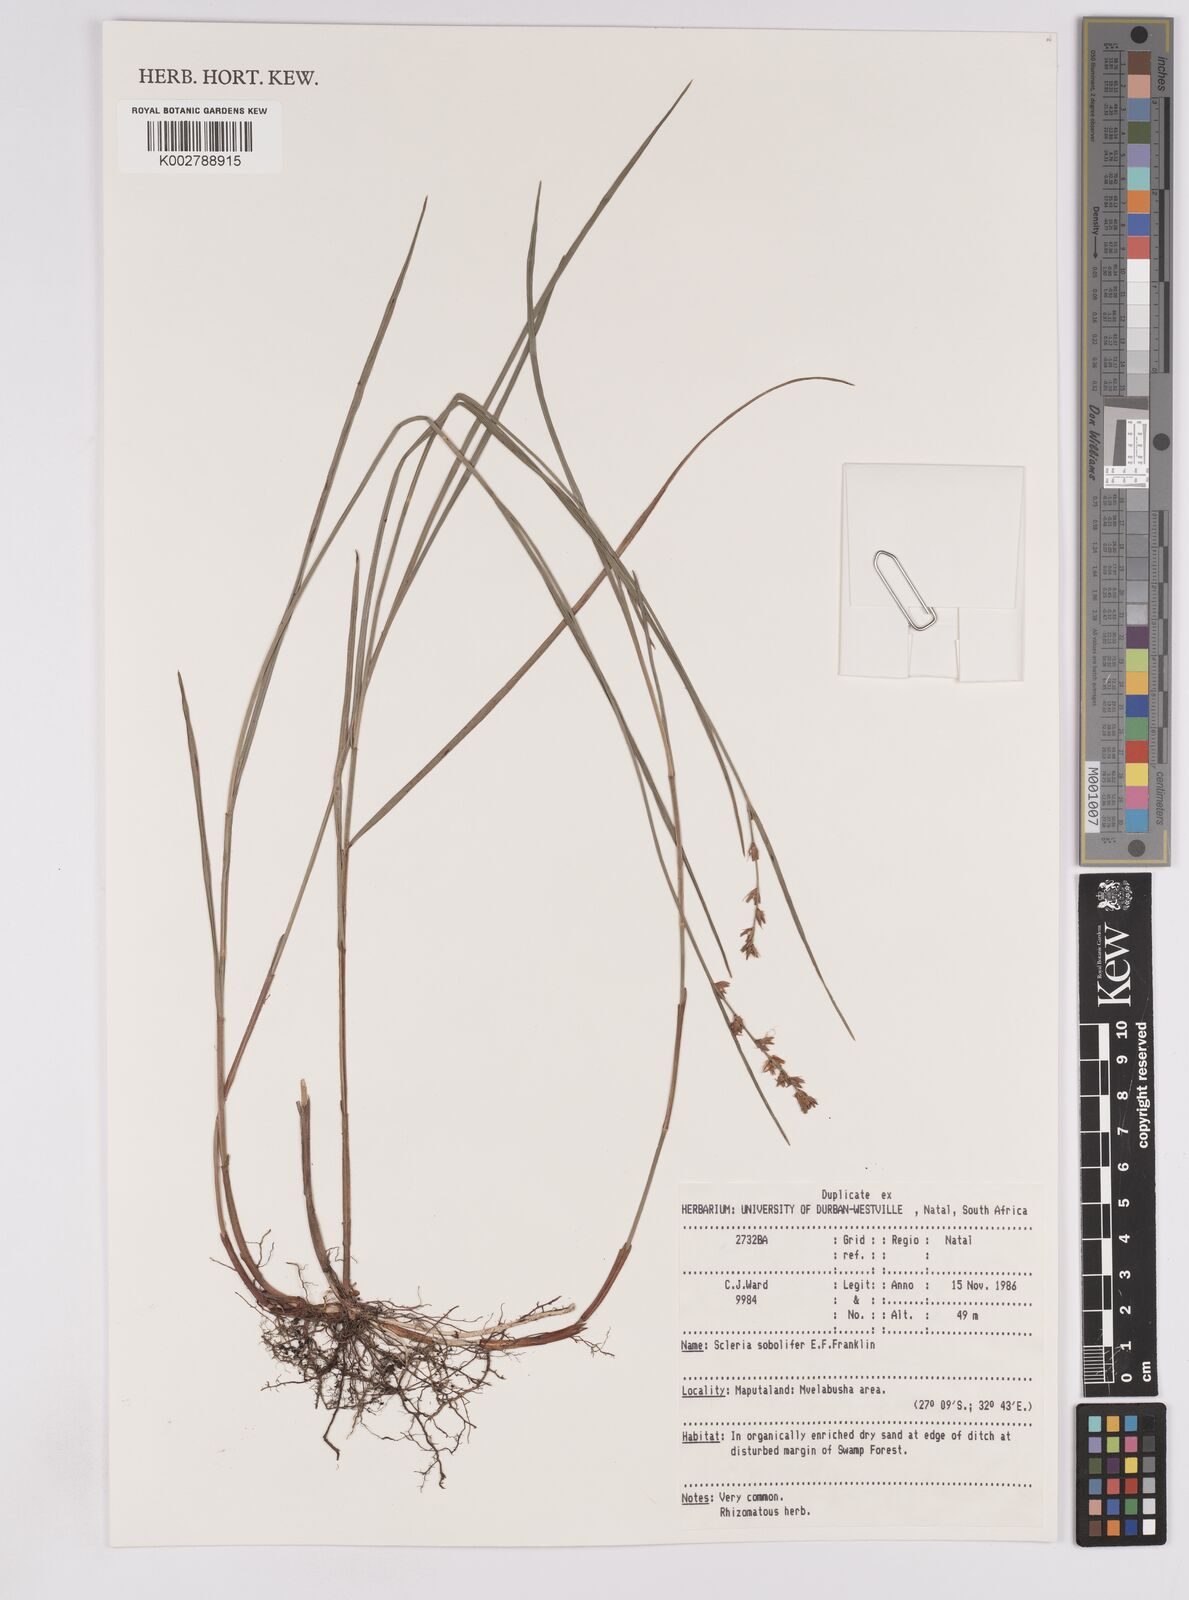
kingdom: Plantae
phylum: Tracheophyta
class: Liliopsida
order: Poales
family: Cyperaceae
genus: Scleria
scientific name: Scleria sobolifera
